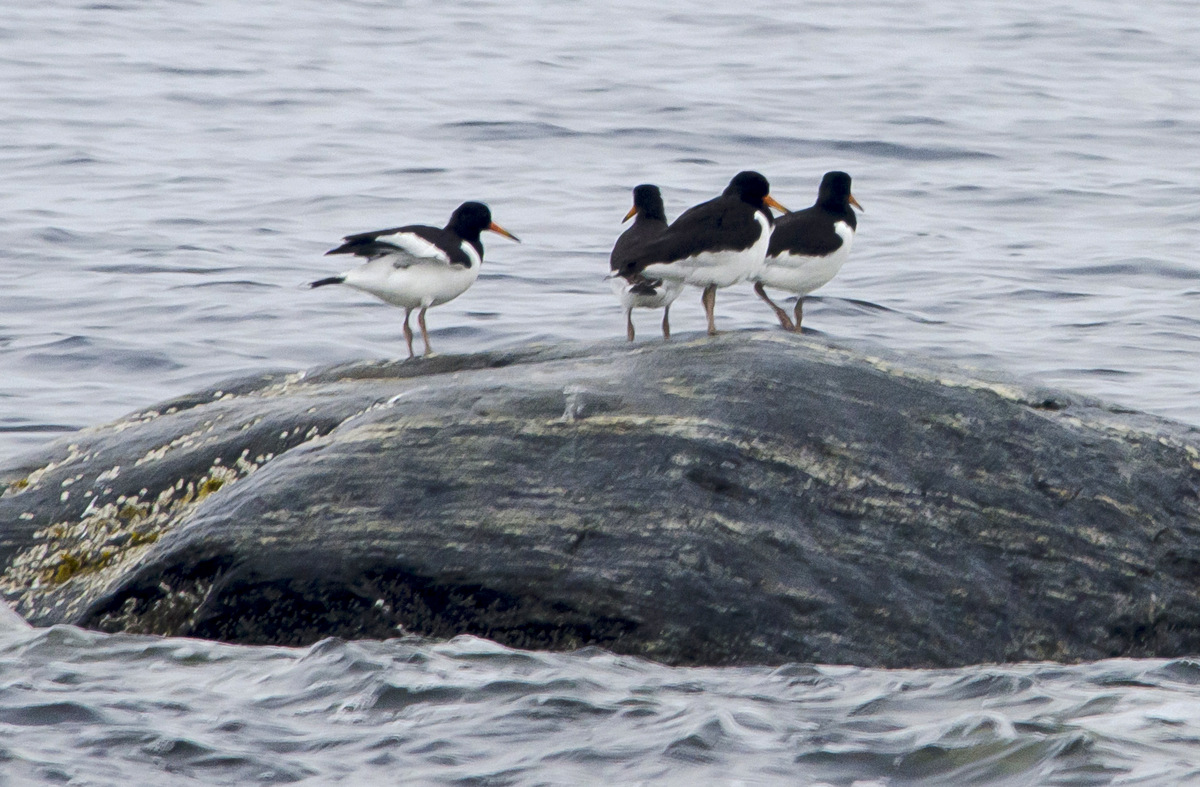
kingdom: Animalia
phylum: Chordata
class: Aves
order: Charadriiformes
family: Haematopodidae
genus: Haematopus
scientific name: Haematopus ostralegus
